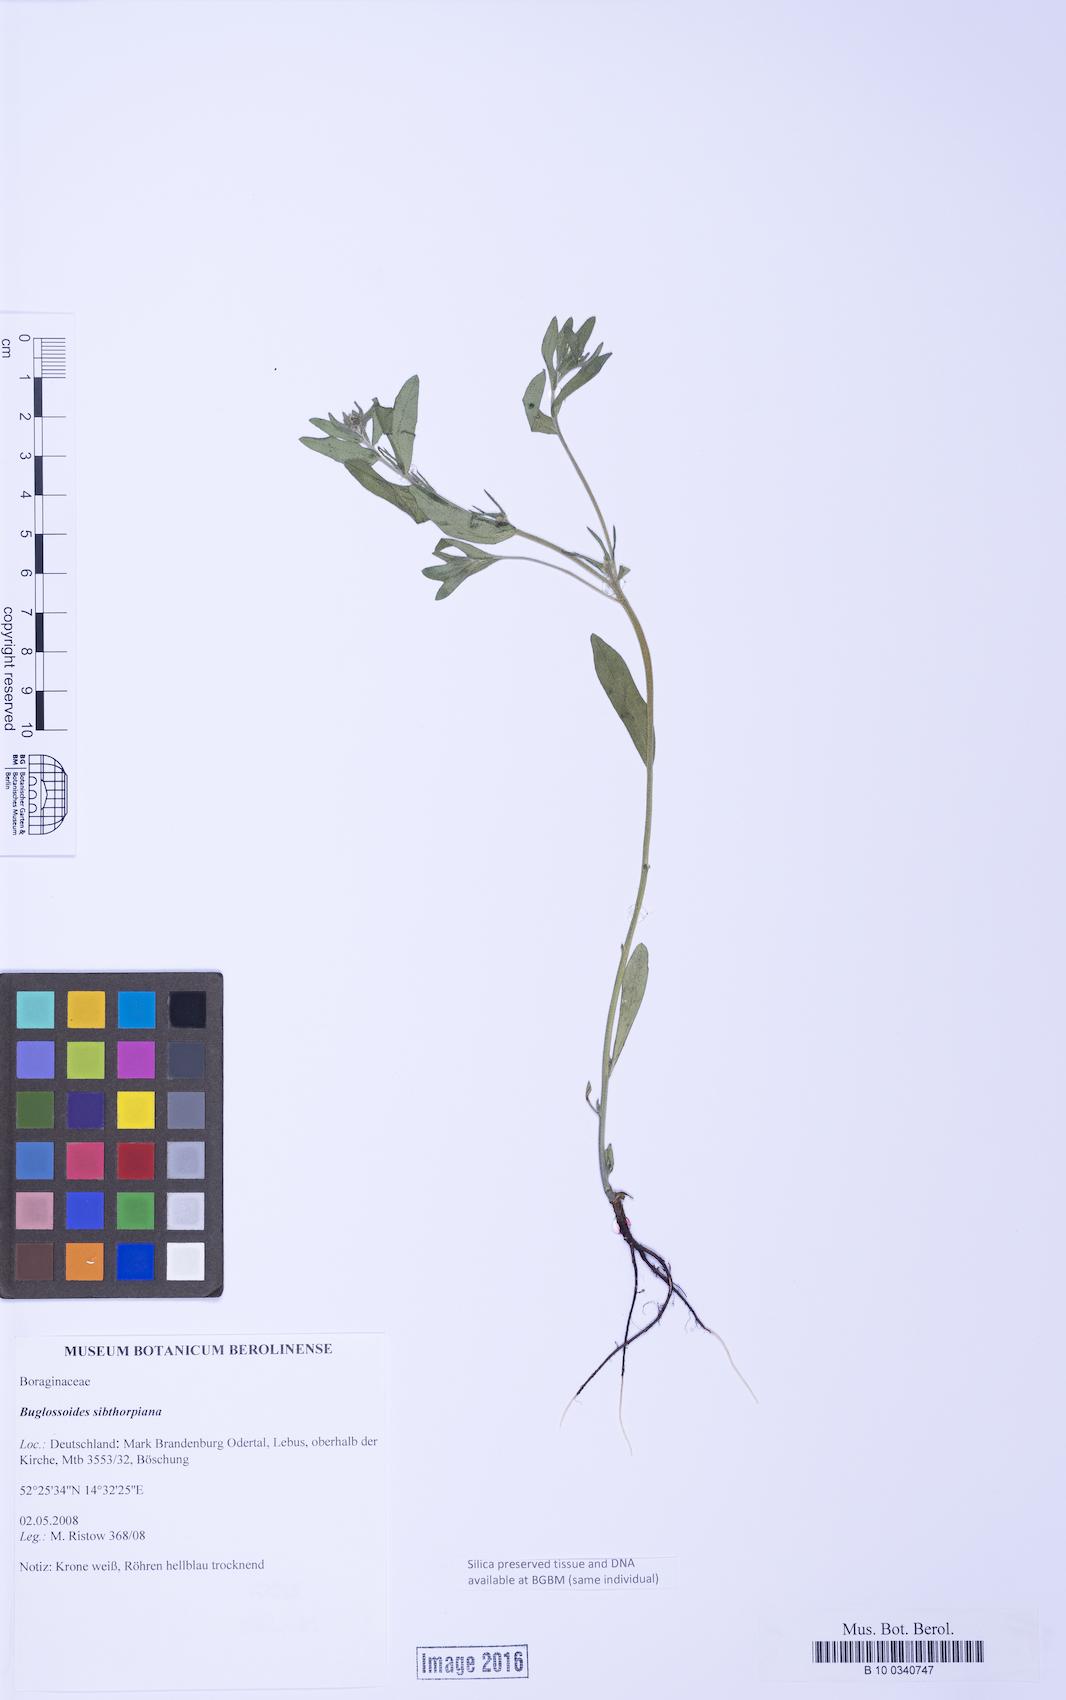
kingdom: Plantae
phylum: Tracheophyta
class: Magnoliopsida
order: Boraginales
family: Boraginaceae
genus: Buglossoides
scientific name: Buglossoides arvensis
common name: Corn gromwell
